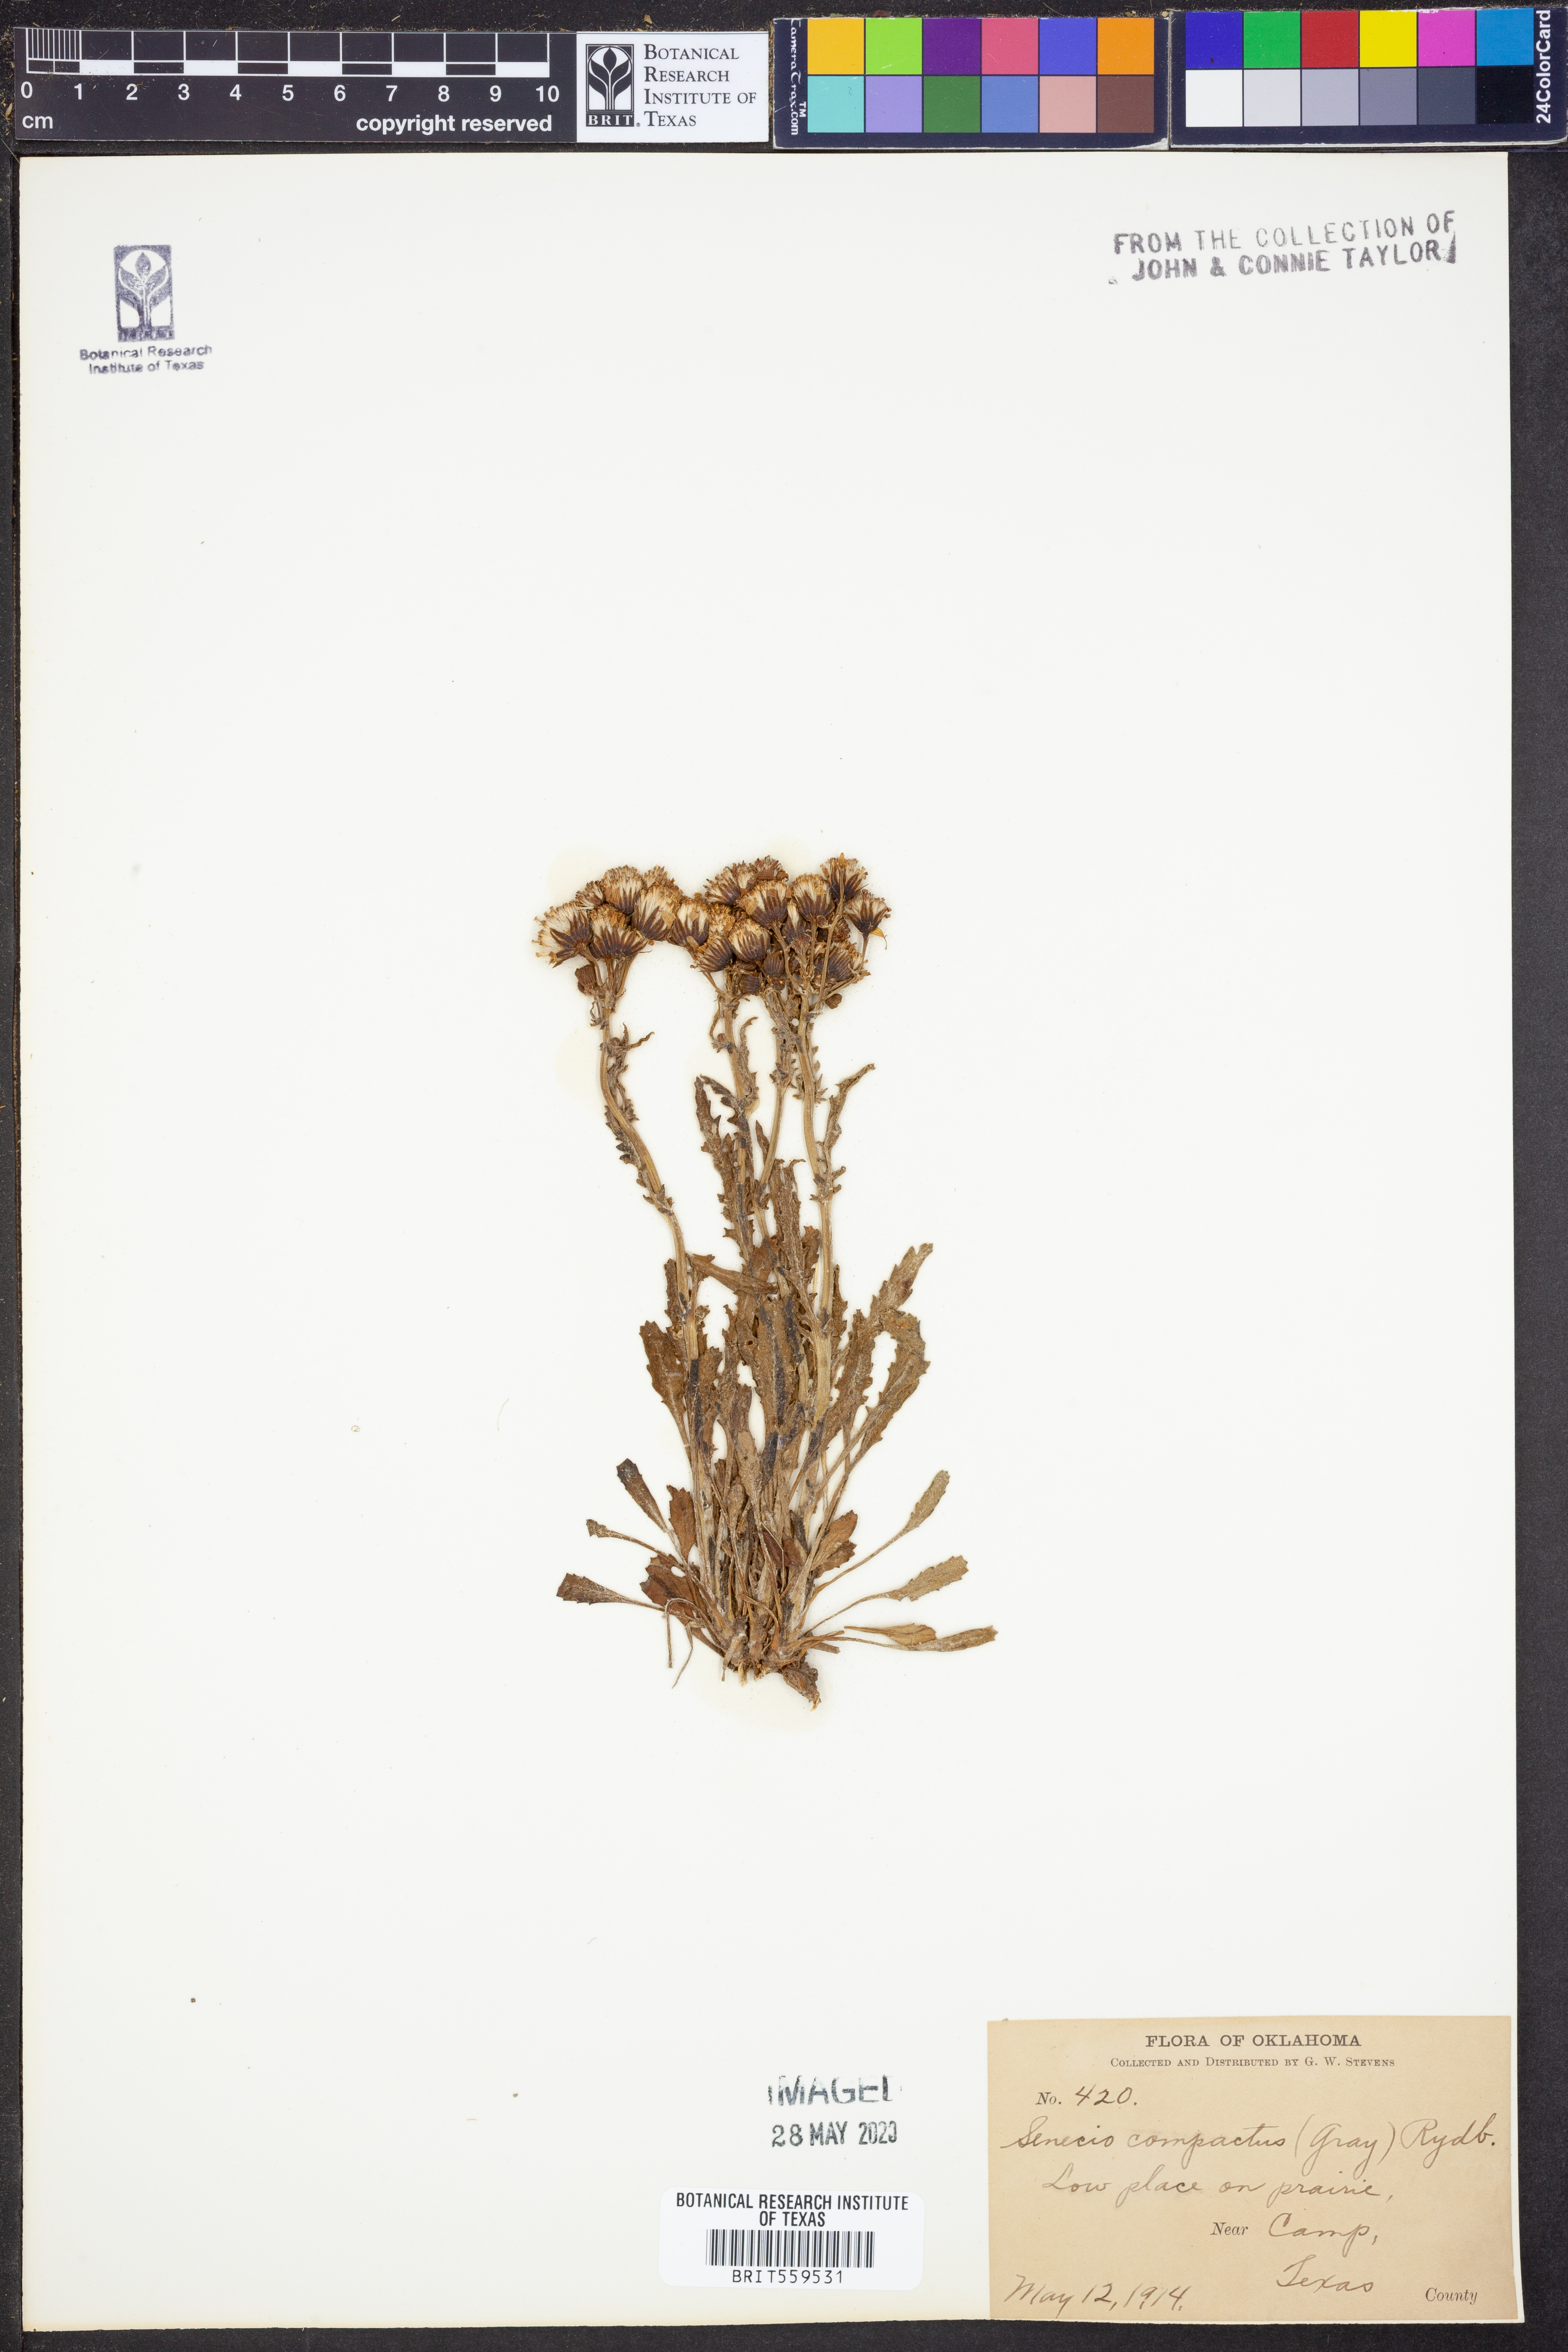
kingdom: Plantae
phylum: Tracheophyta
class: Magnoliopsida
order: Asterales
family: Asteraceae
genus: Brachyglottis
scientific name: Brachyglottis compacta
